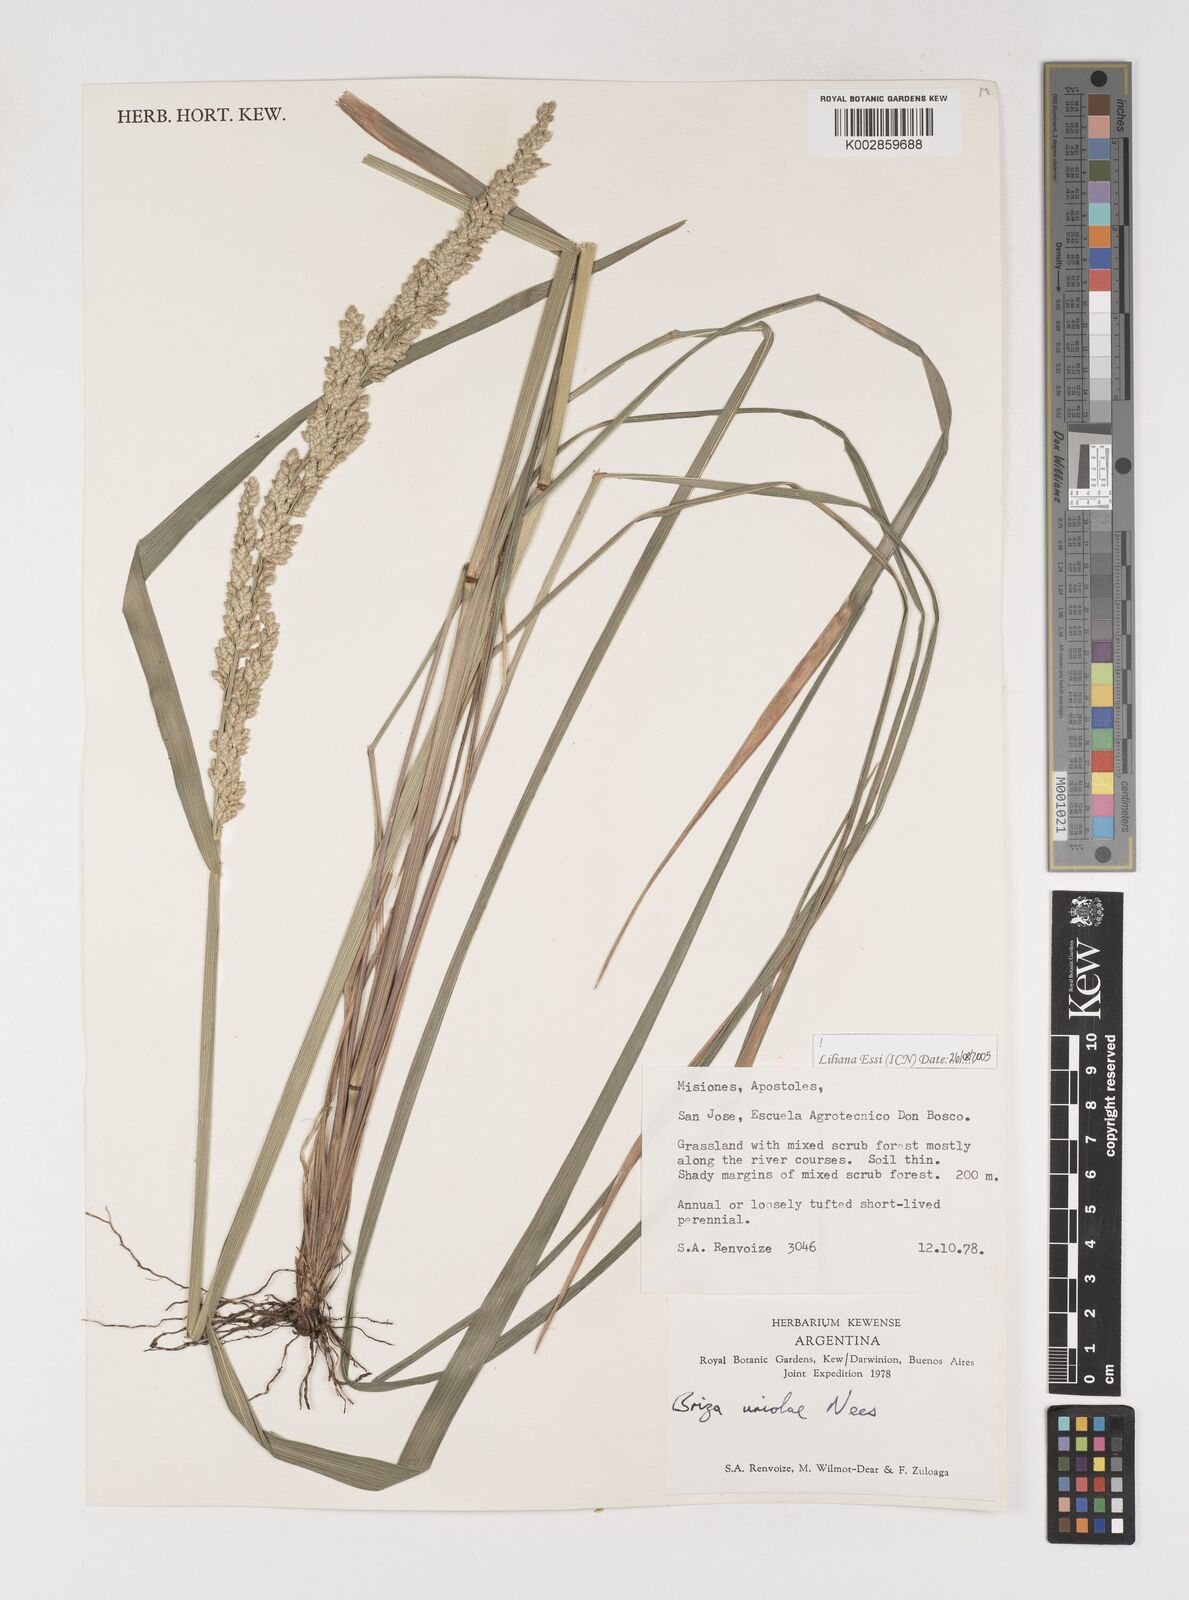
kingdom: Plantae
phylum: Tracheophyta
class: Liliopsida
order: Poales
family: Poaceae
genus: Poidium
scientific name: Poidium uniolae
